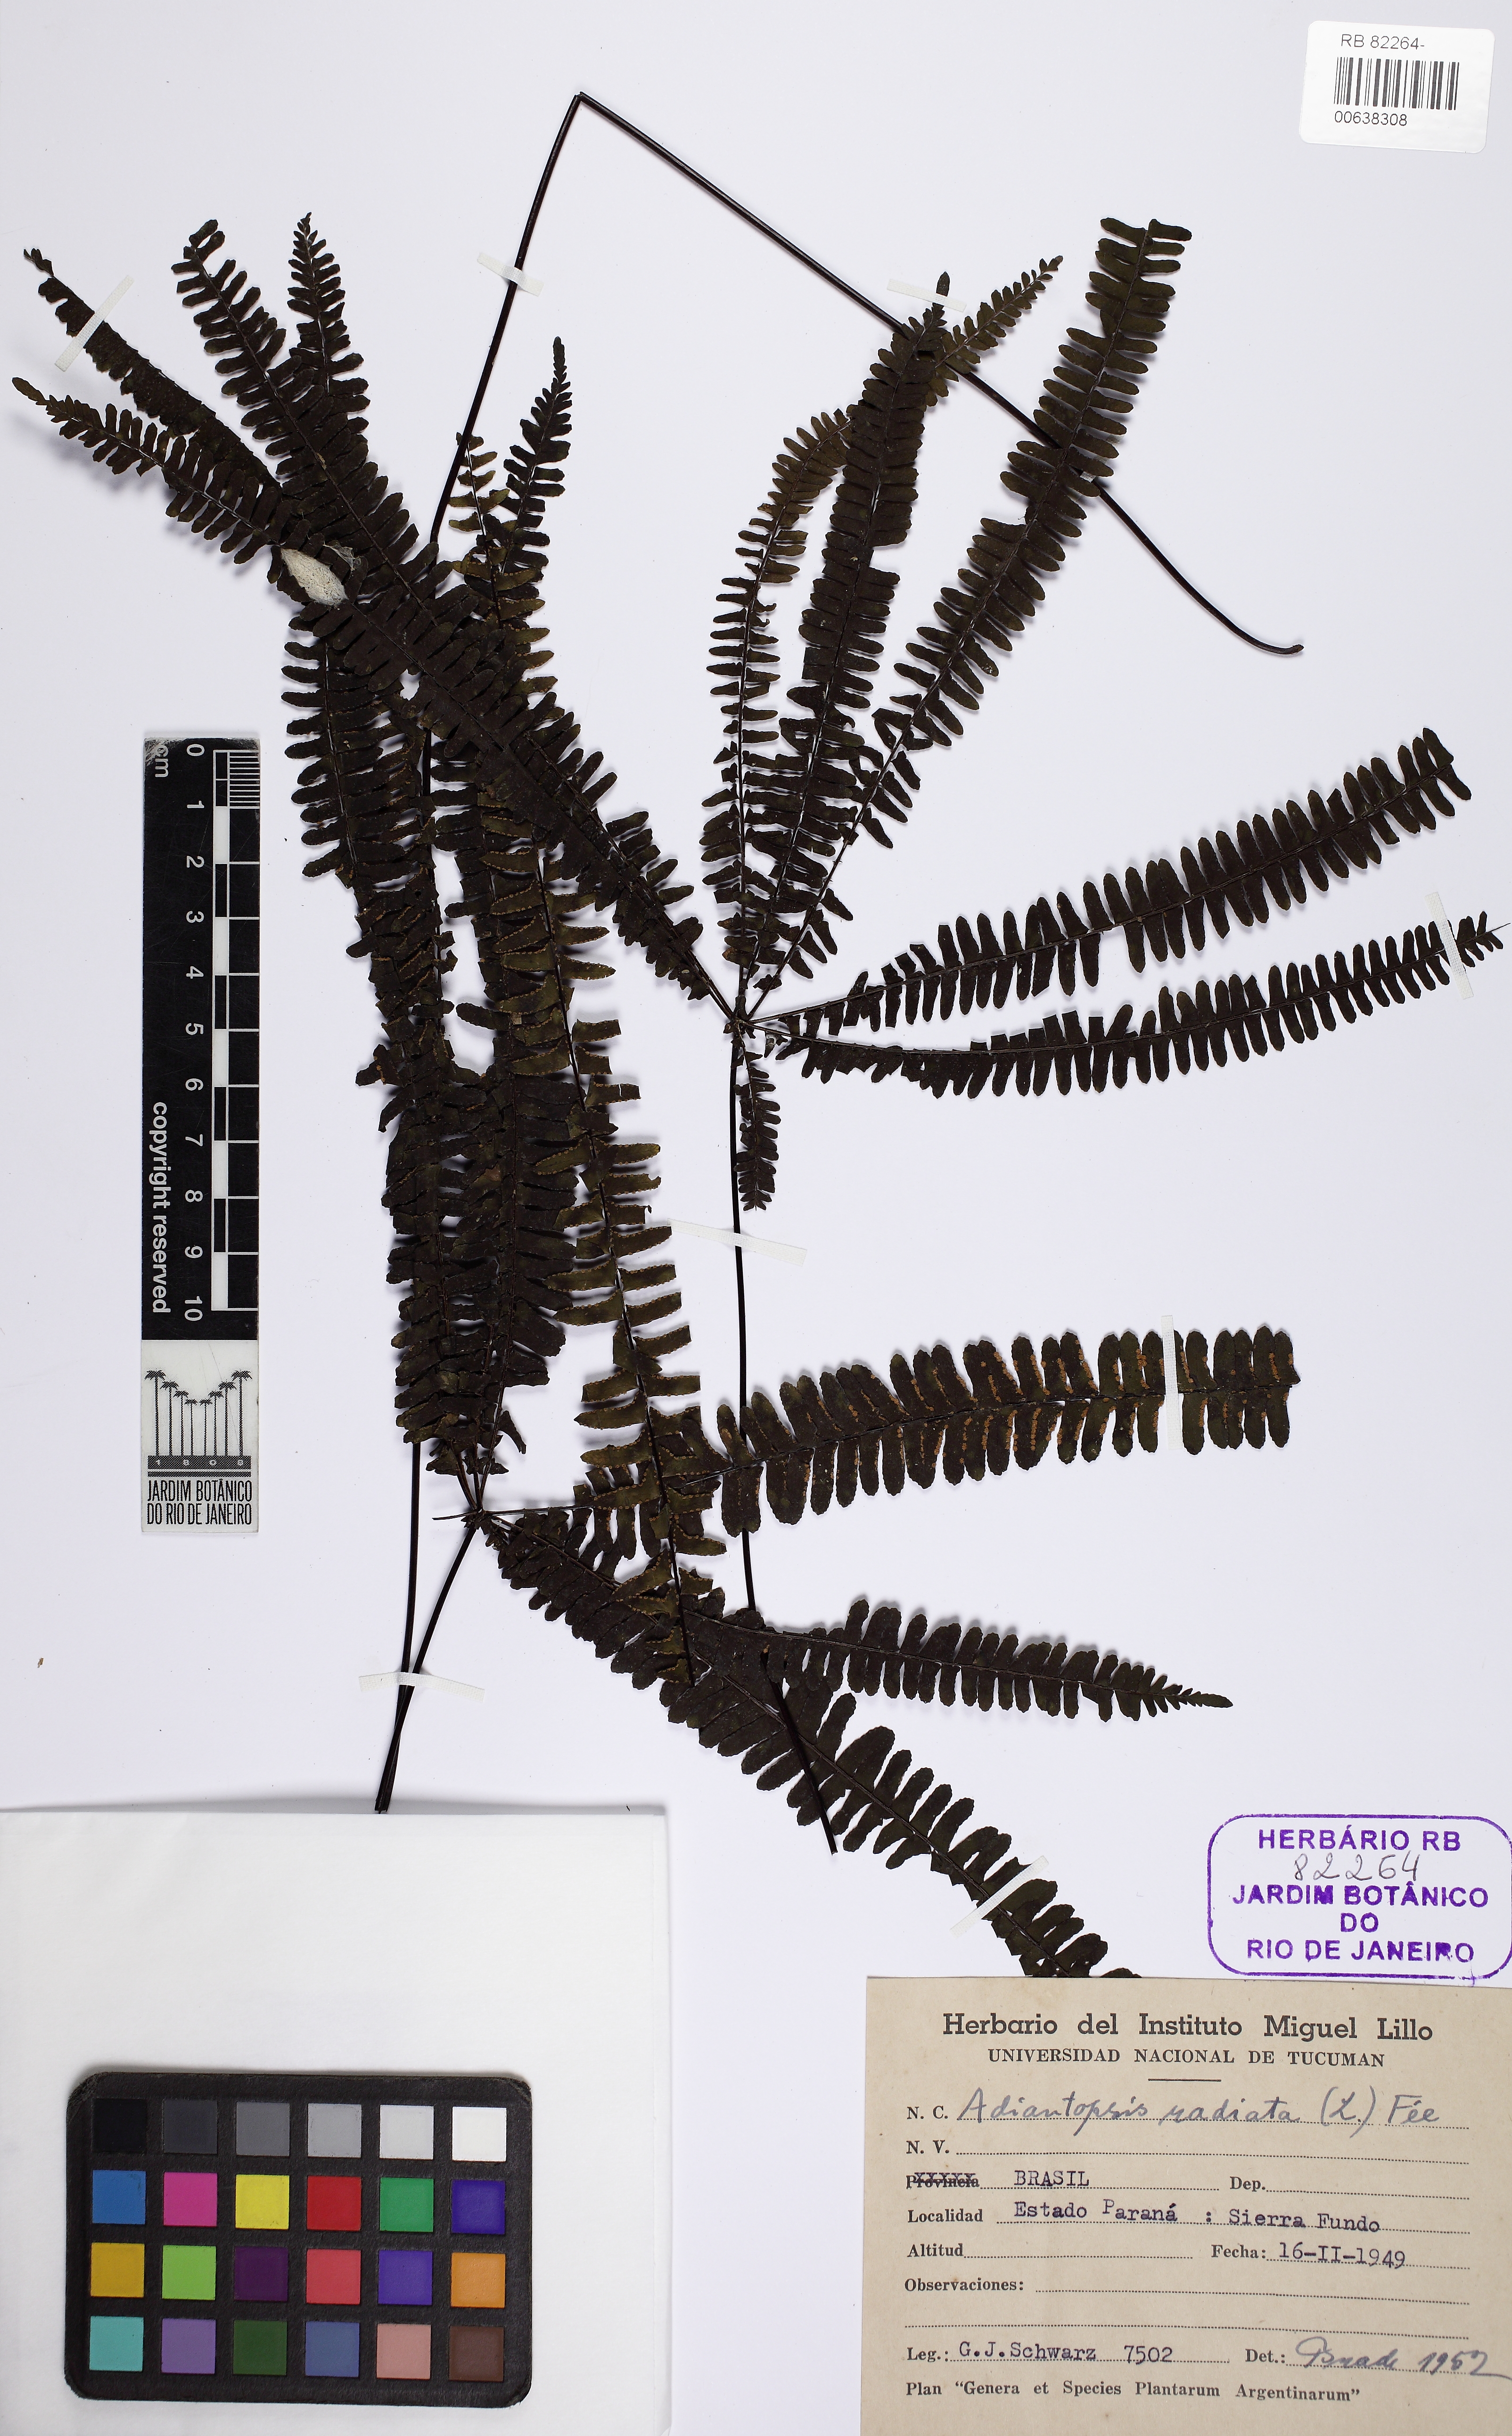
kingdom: Plantae
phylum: Tracheophyta
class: Polypodiopsida
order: Polypodiales
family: Pteridaceae
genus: Adiantopsis
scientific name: Adiantopsis radiata
